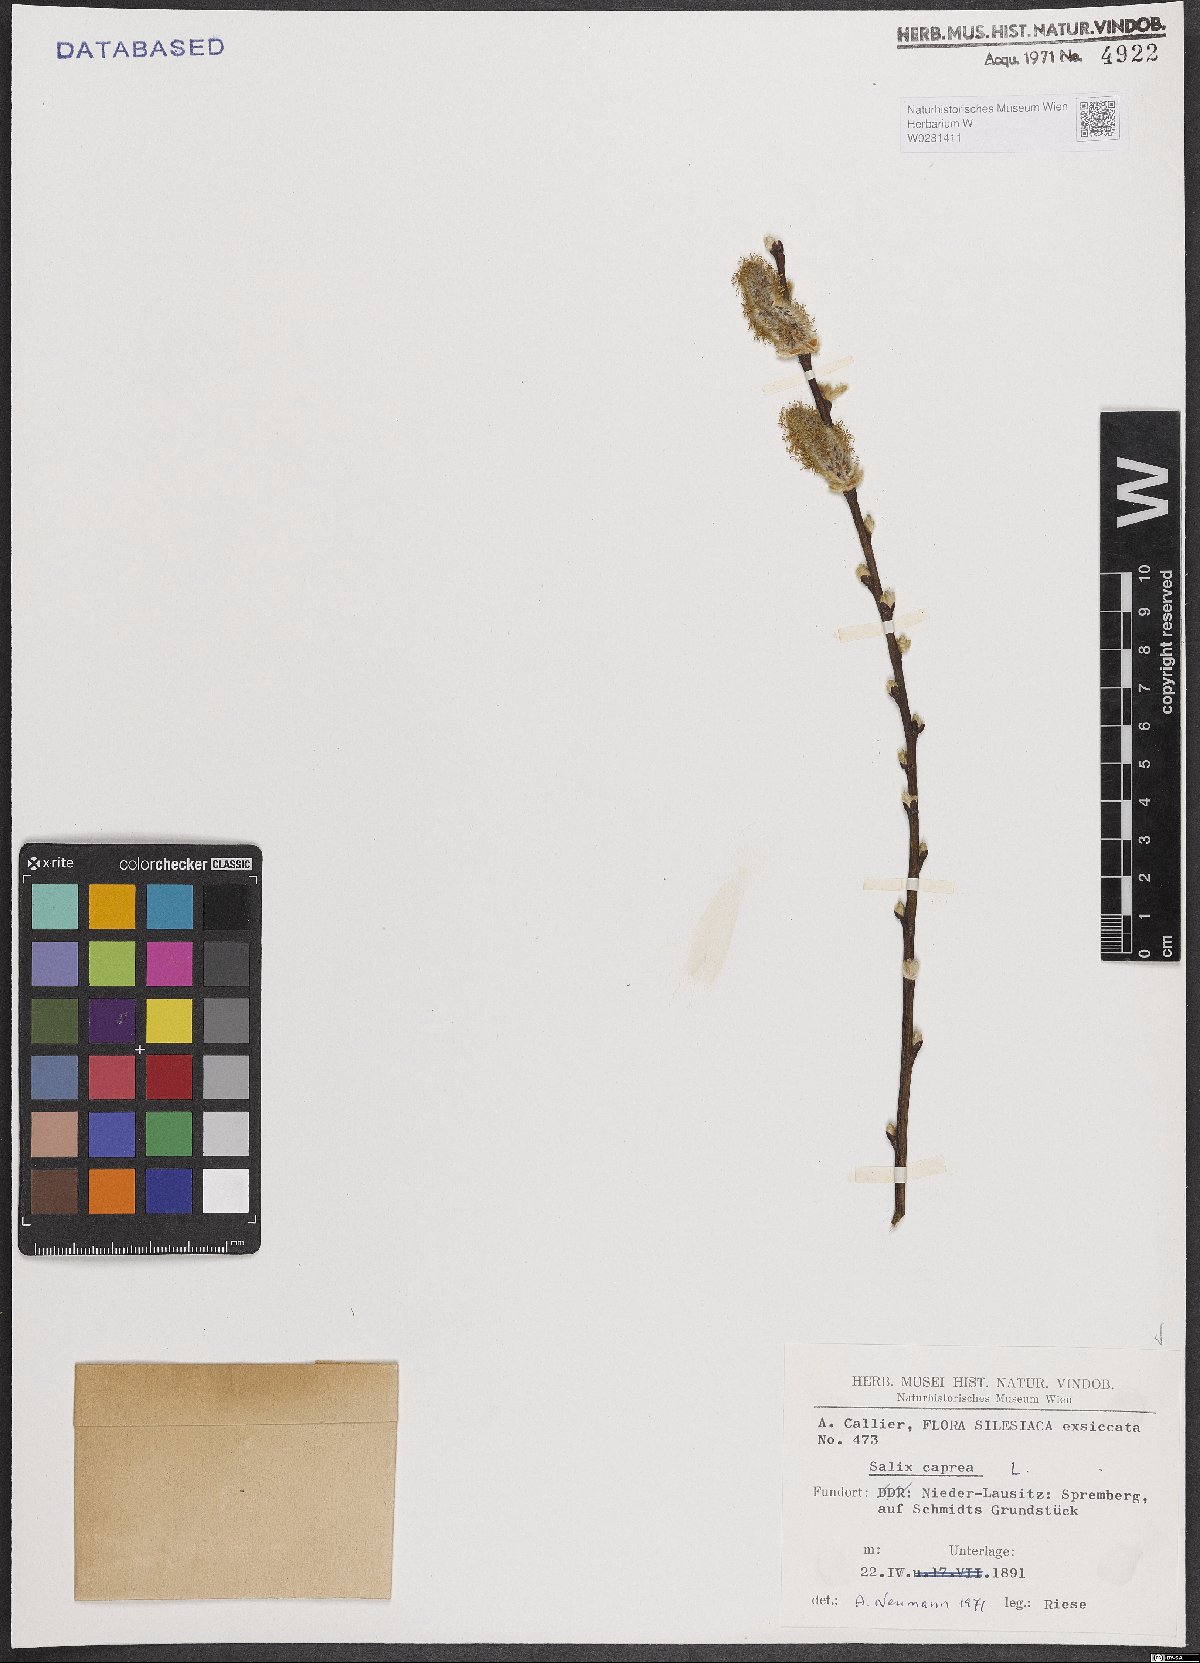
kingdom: Plantae
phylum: Tracheophyta
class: Magnoliopsida
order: Malpighiales
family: Salicaceae
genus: Salix
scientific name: Salix caprea
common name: Goat willow
